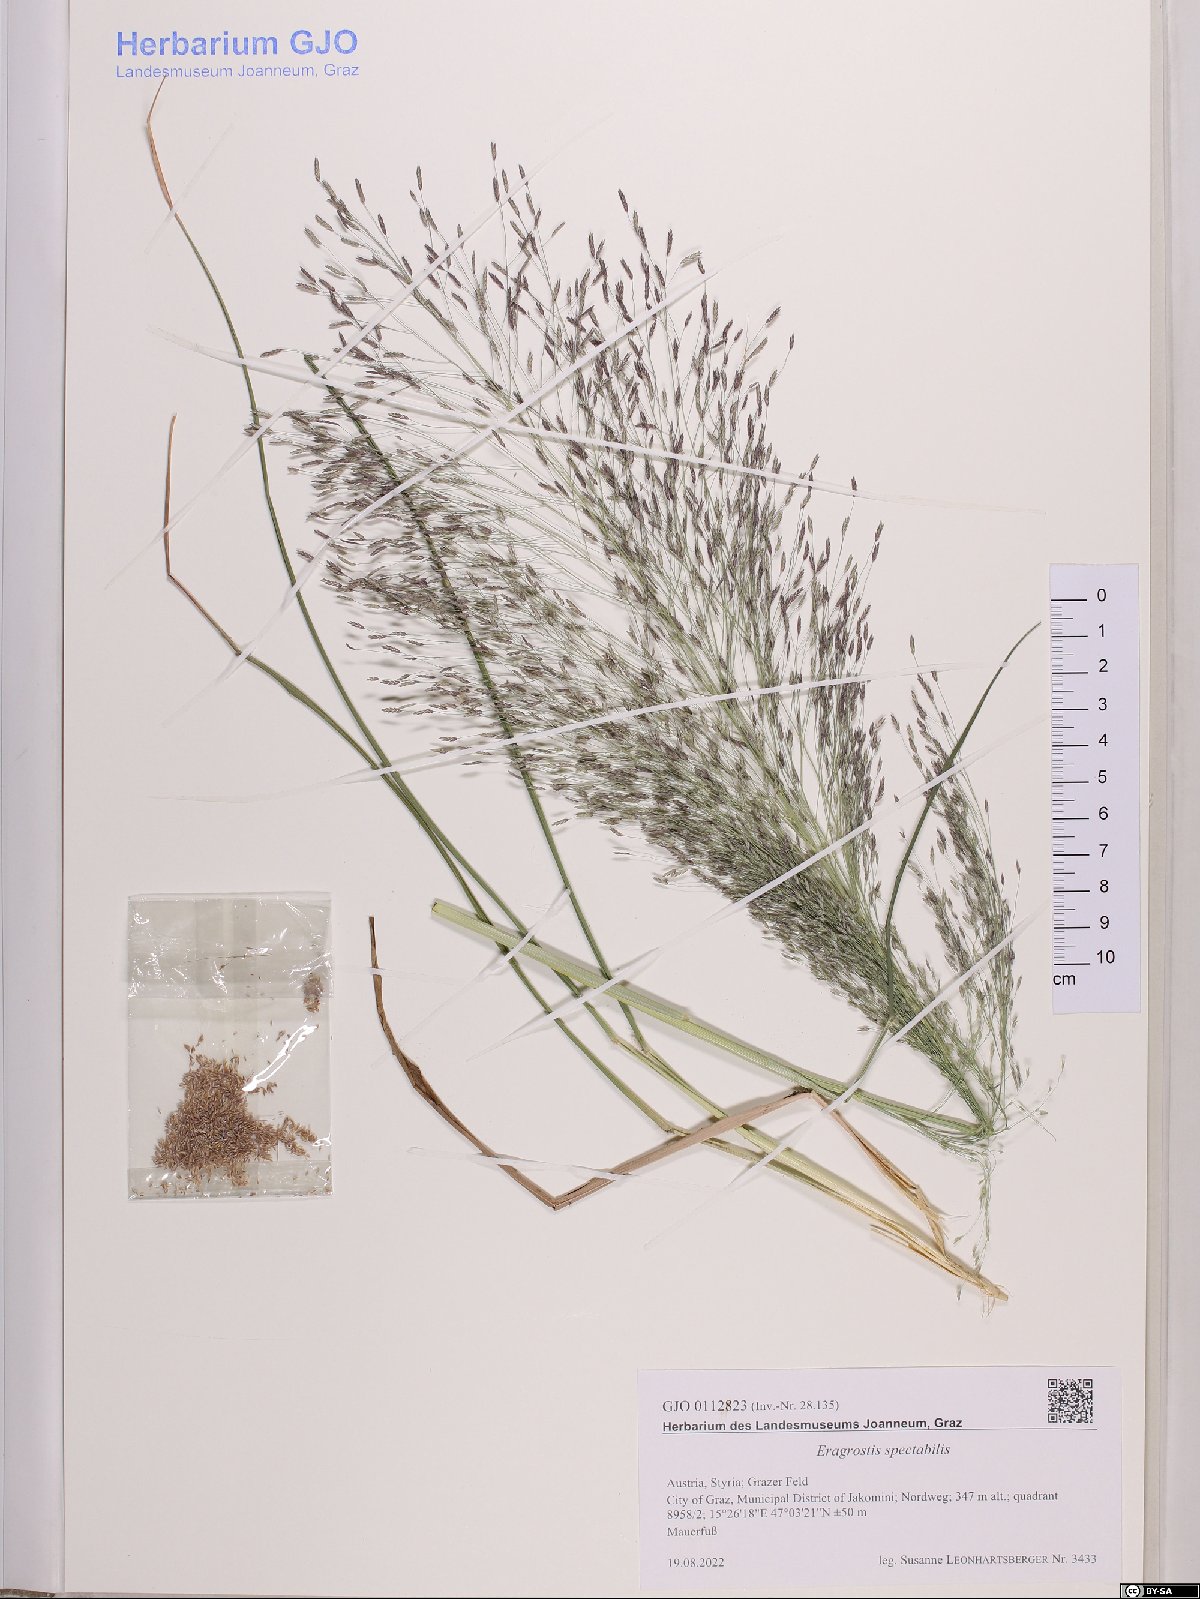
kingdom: Plantae
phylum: Tracheophyta
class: Liliopsida
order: Poales
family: Poaceae
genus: Eragrostis
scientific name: Eragrostis spectabilis
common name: Petticoat-climber
